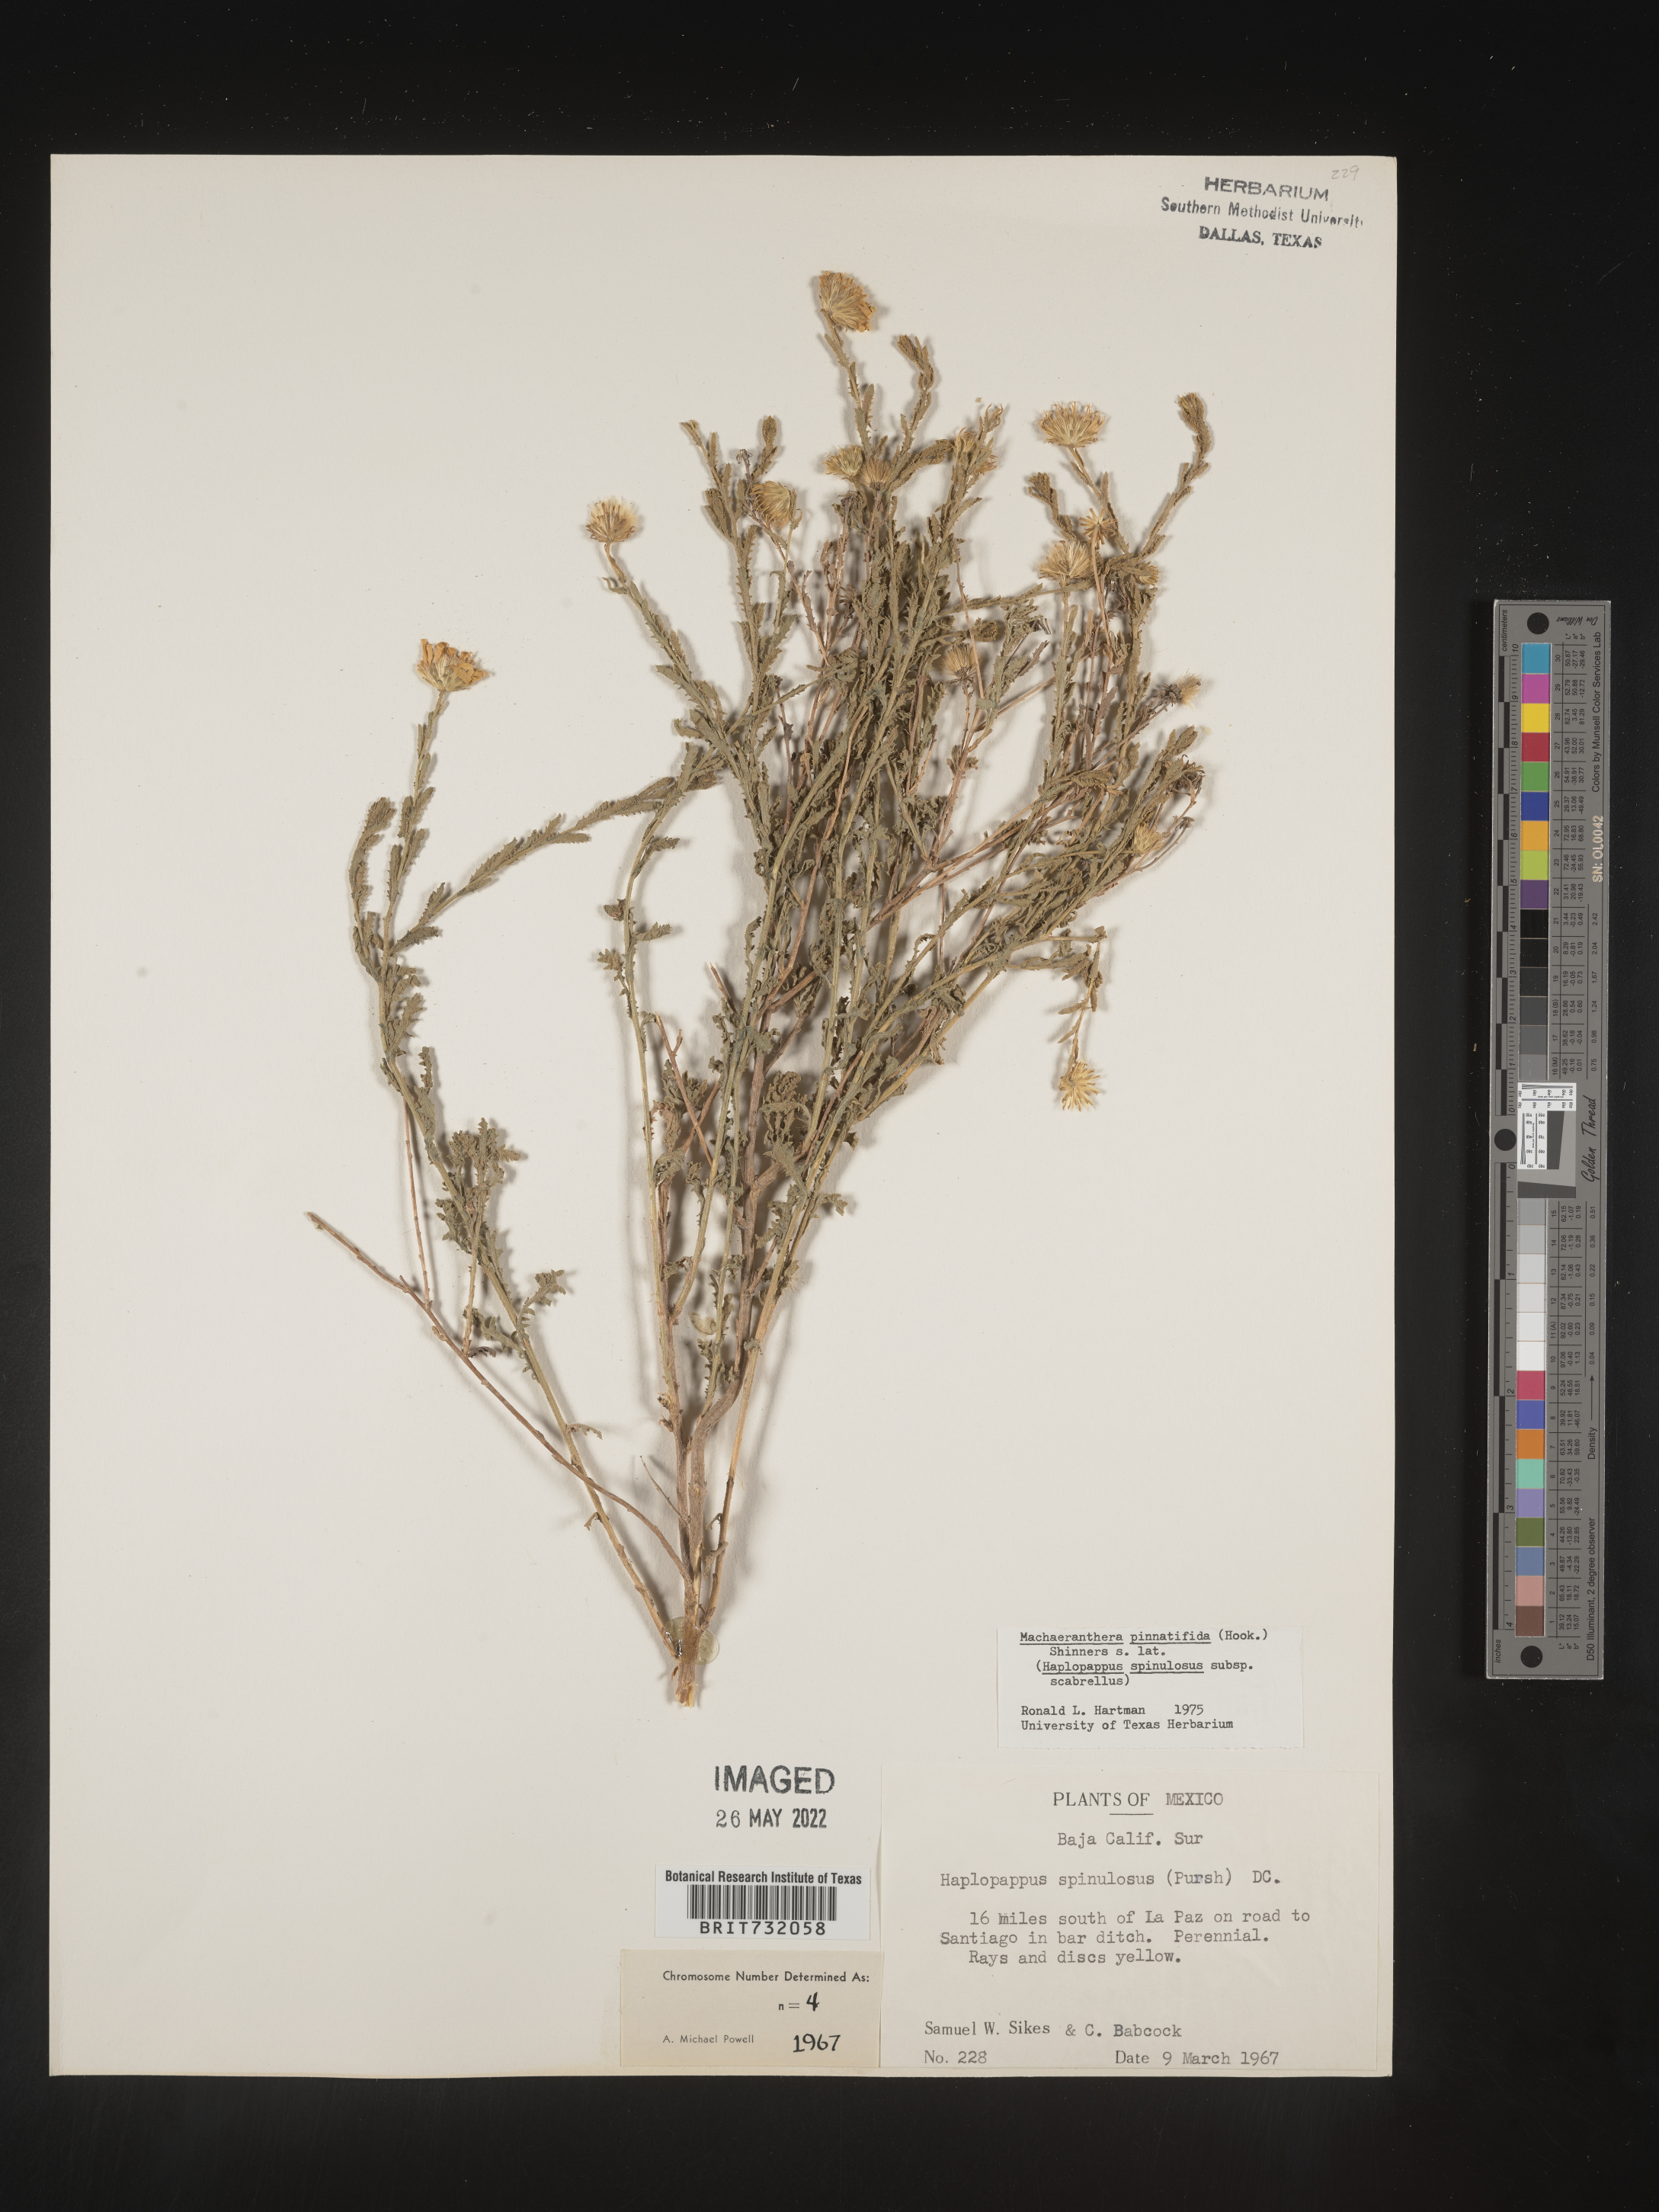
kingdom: Plantae
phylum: Tracheophyta
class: Magnoliopsida
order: Asterales
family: Asteraceae
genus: Xanthisma
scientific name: Xanthisma spinulosum
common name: Spiny goldenweed
